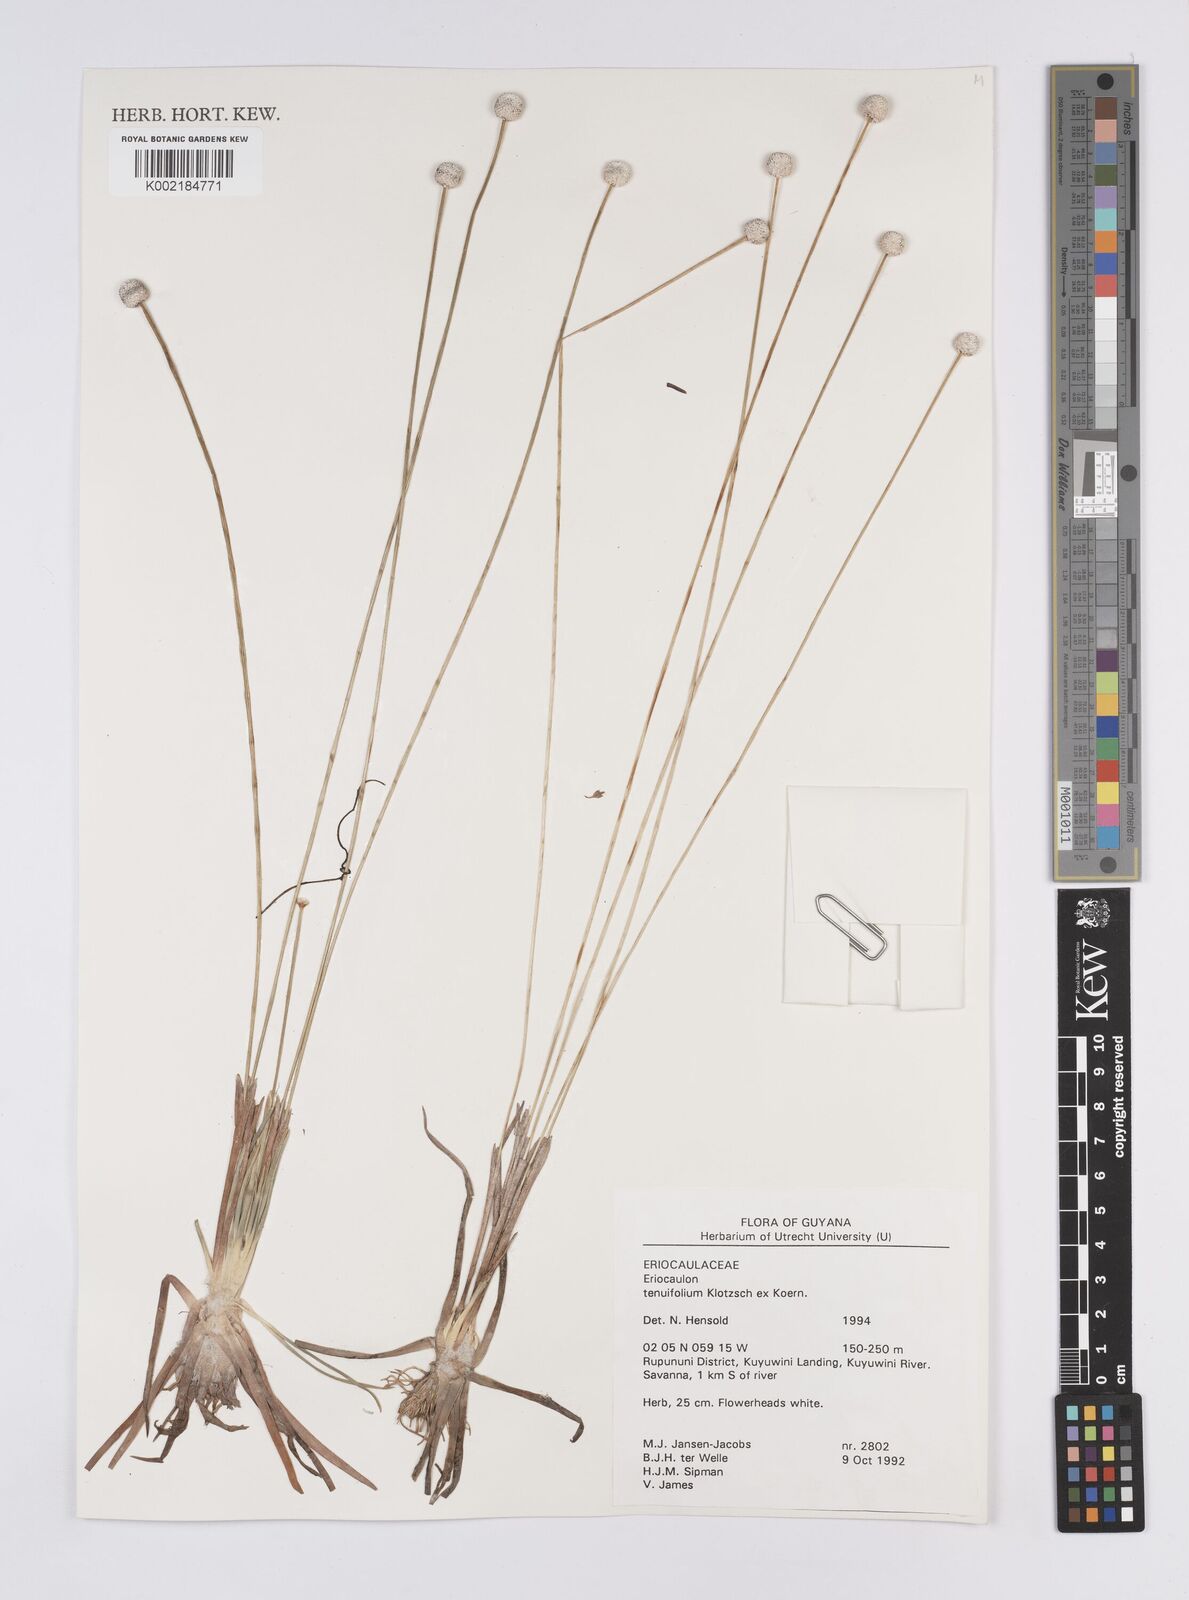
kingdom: Plantae
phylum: Tracheophyta
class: Liliopsida
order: Poales
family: Eriocaulaceae
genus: Eriocaulon
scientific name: Eriocaulon tenuifolium
